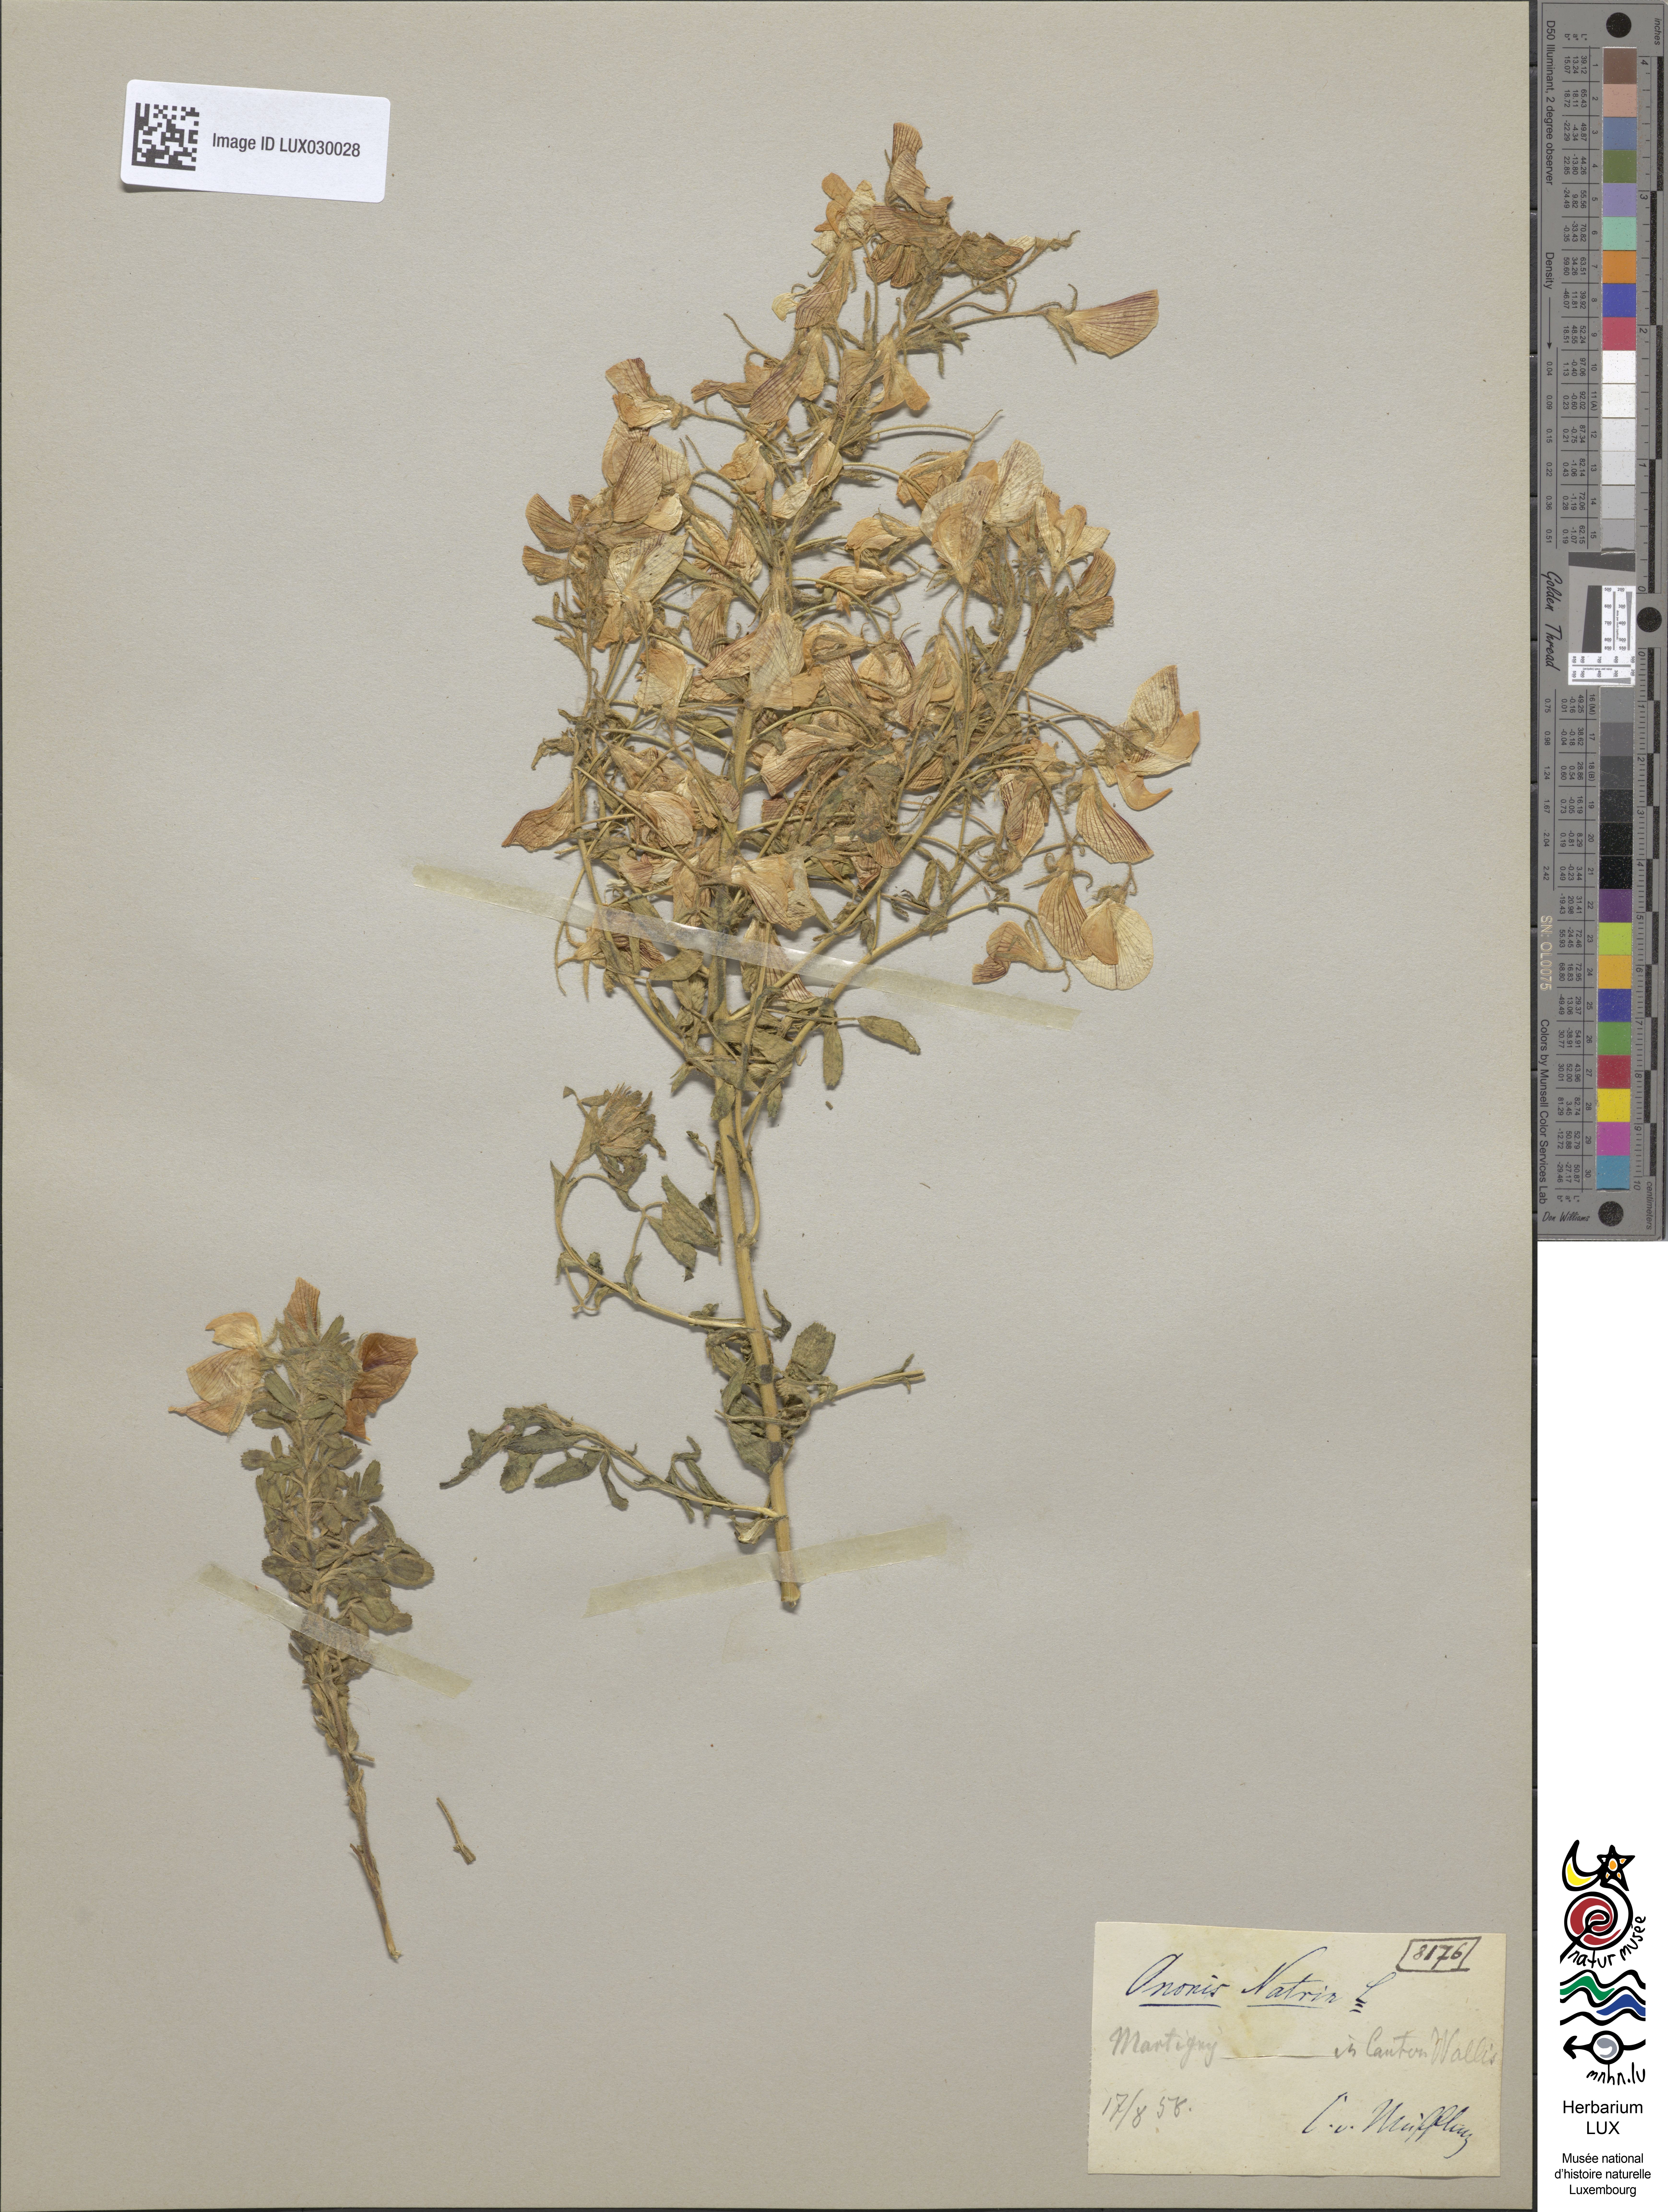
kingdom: Plantae
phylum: Tracheophyta
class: Magnoliopsida
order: Fabales
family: Fabaceae
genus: Ononis
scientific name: Ononis natrix
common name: Yellow restharrow
